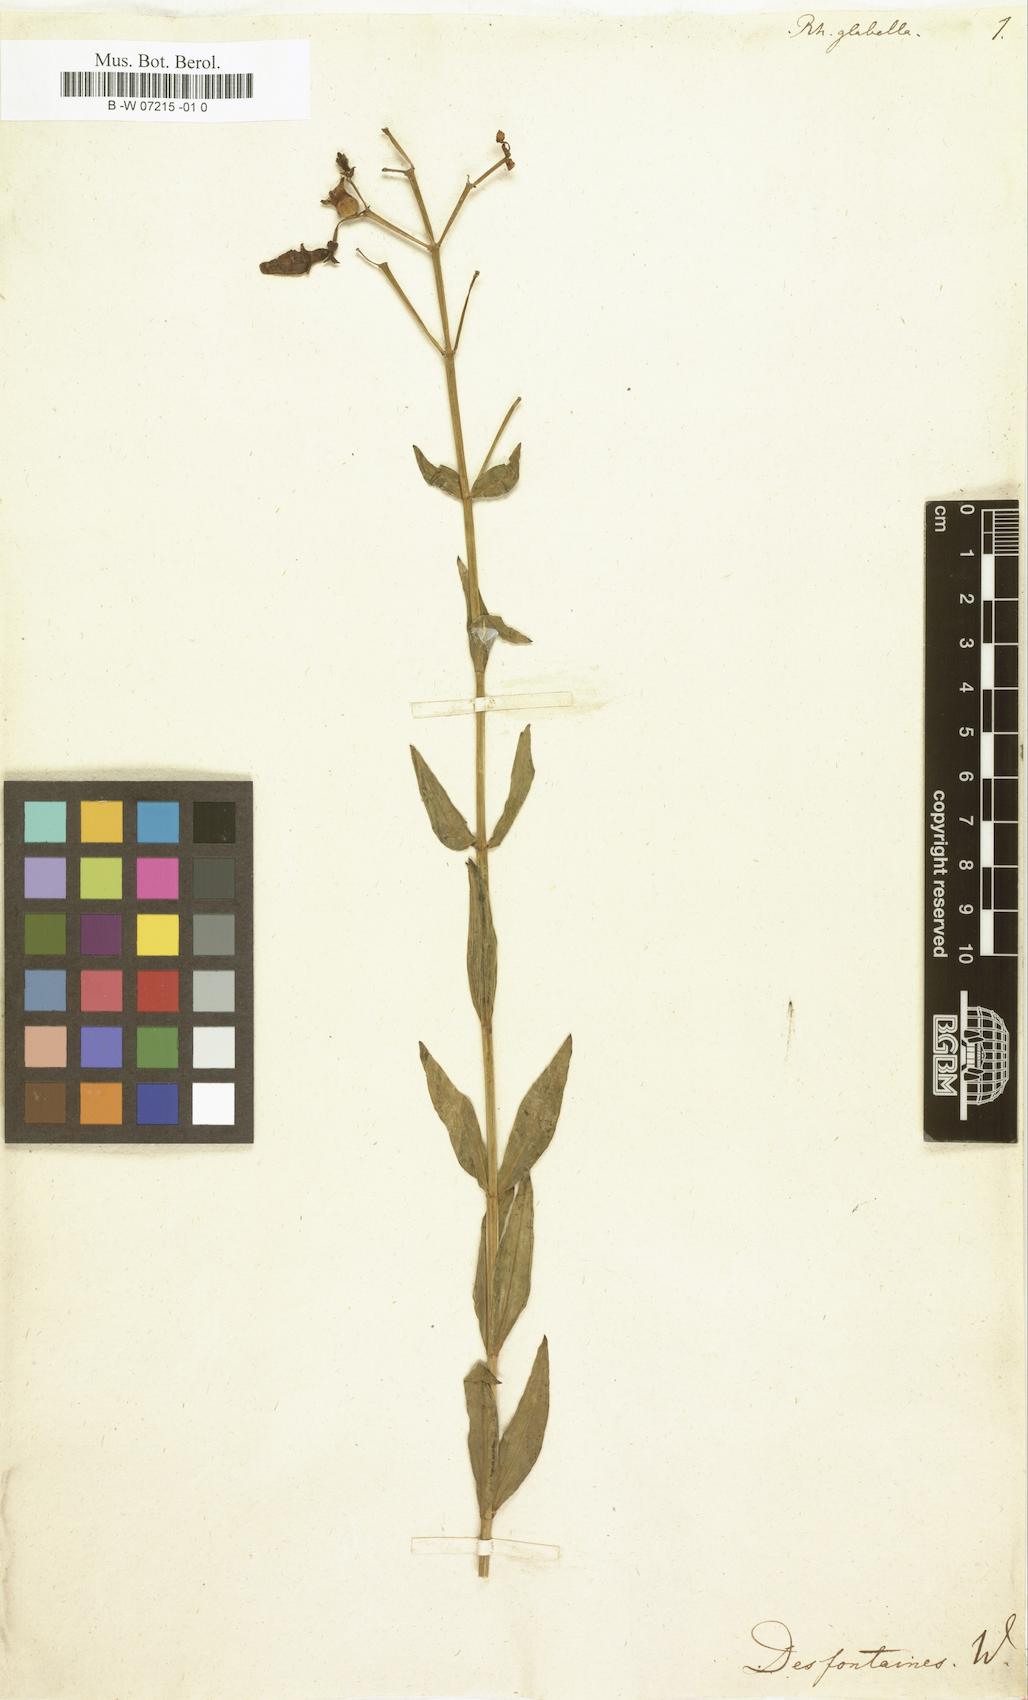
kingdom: Plantae
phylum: Tracheophyta
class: Magnoliopsida
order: Myrtales
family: Melastomataceae
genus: Rhexia
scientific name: Rhexia alifanus
